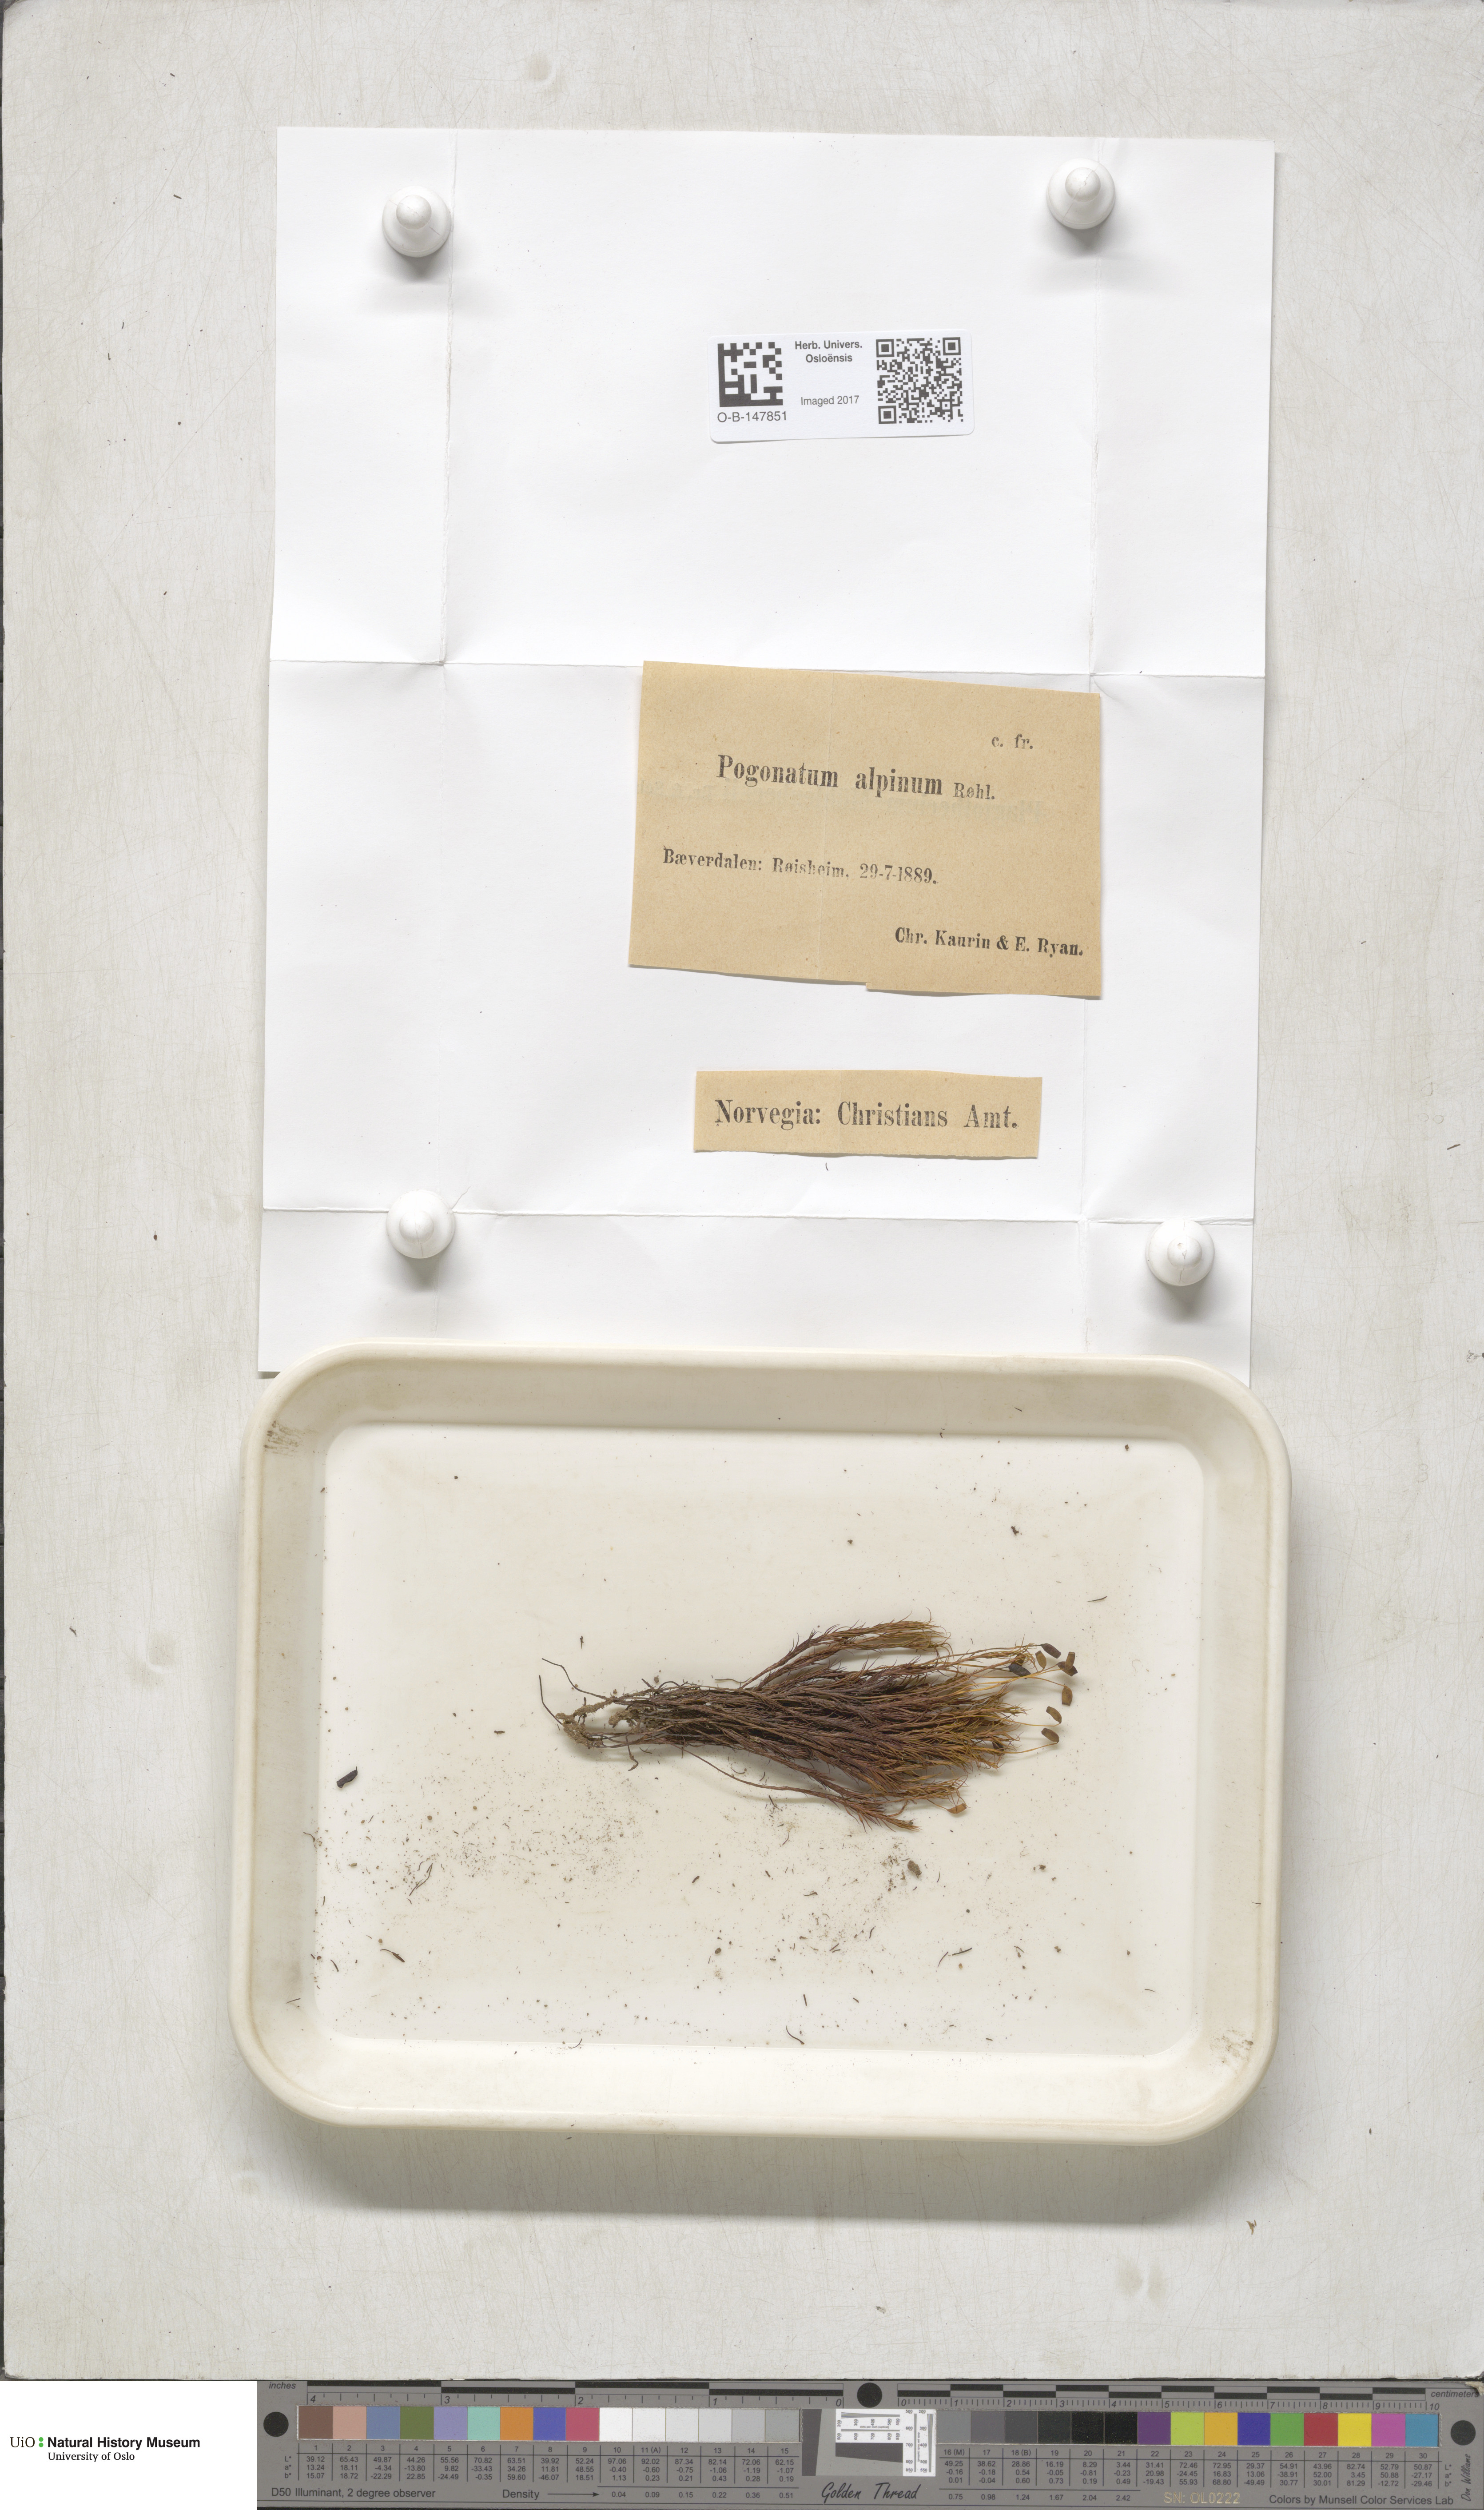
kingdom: Plantae
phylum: Bryophyta
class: Polytrichopsida
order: Polytrichales
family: Polytrichaceae
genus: Polytrichastrum
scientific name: Polytrichastrum alpinum
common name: Alpine haircap
